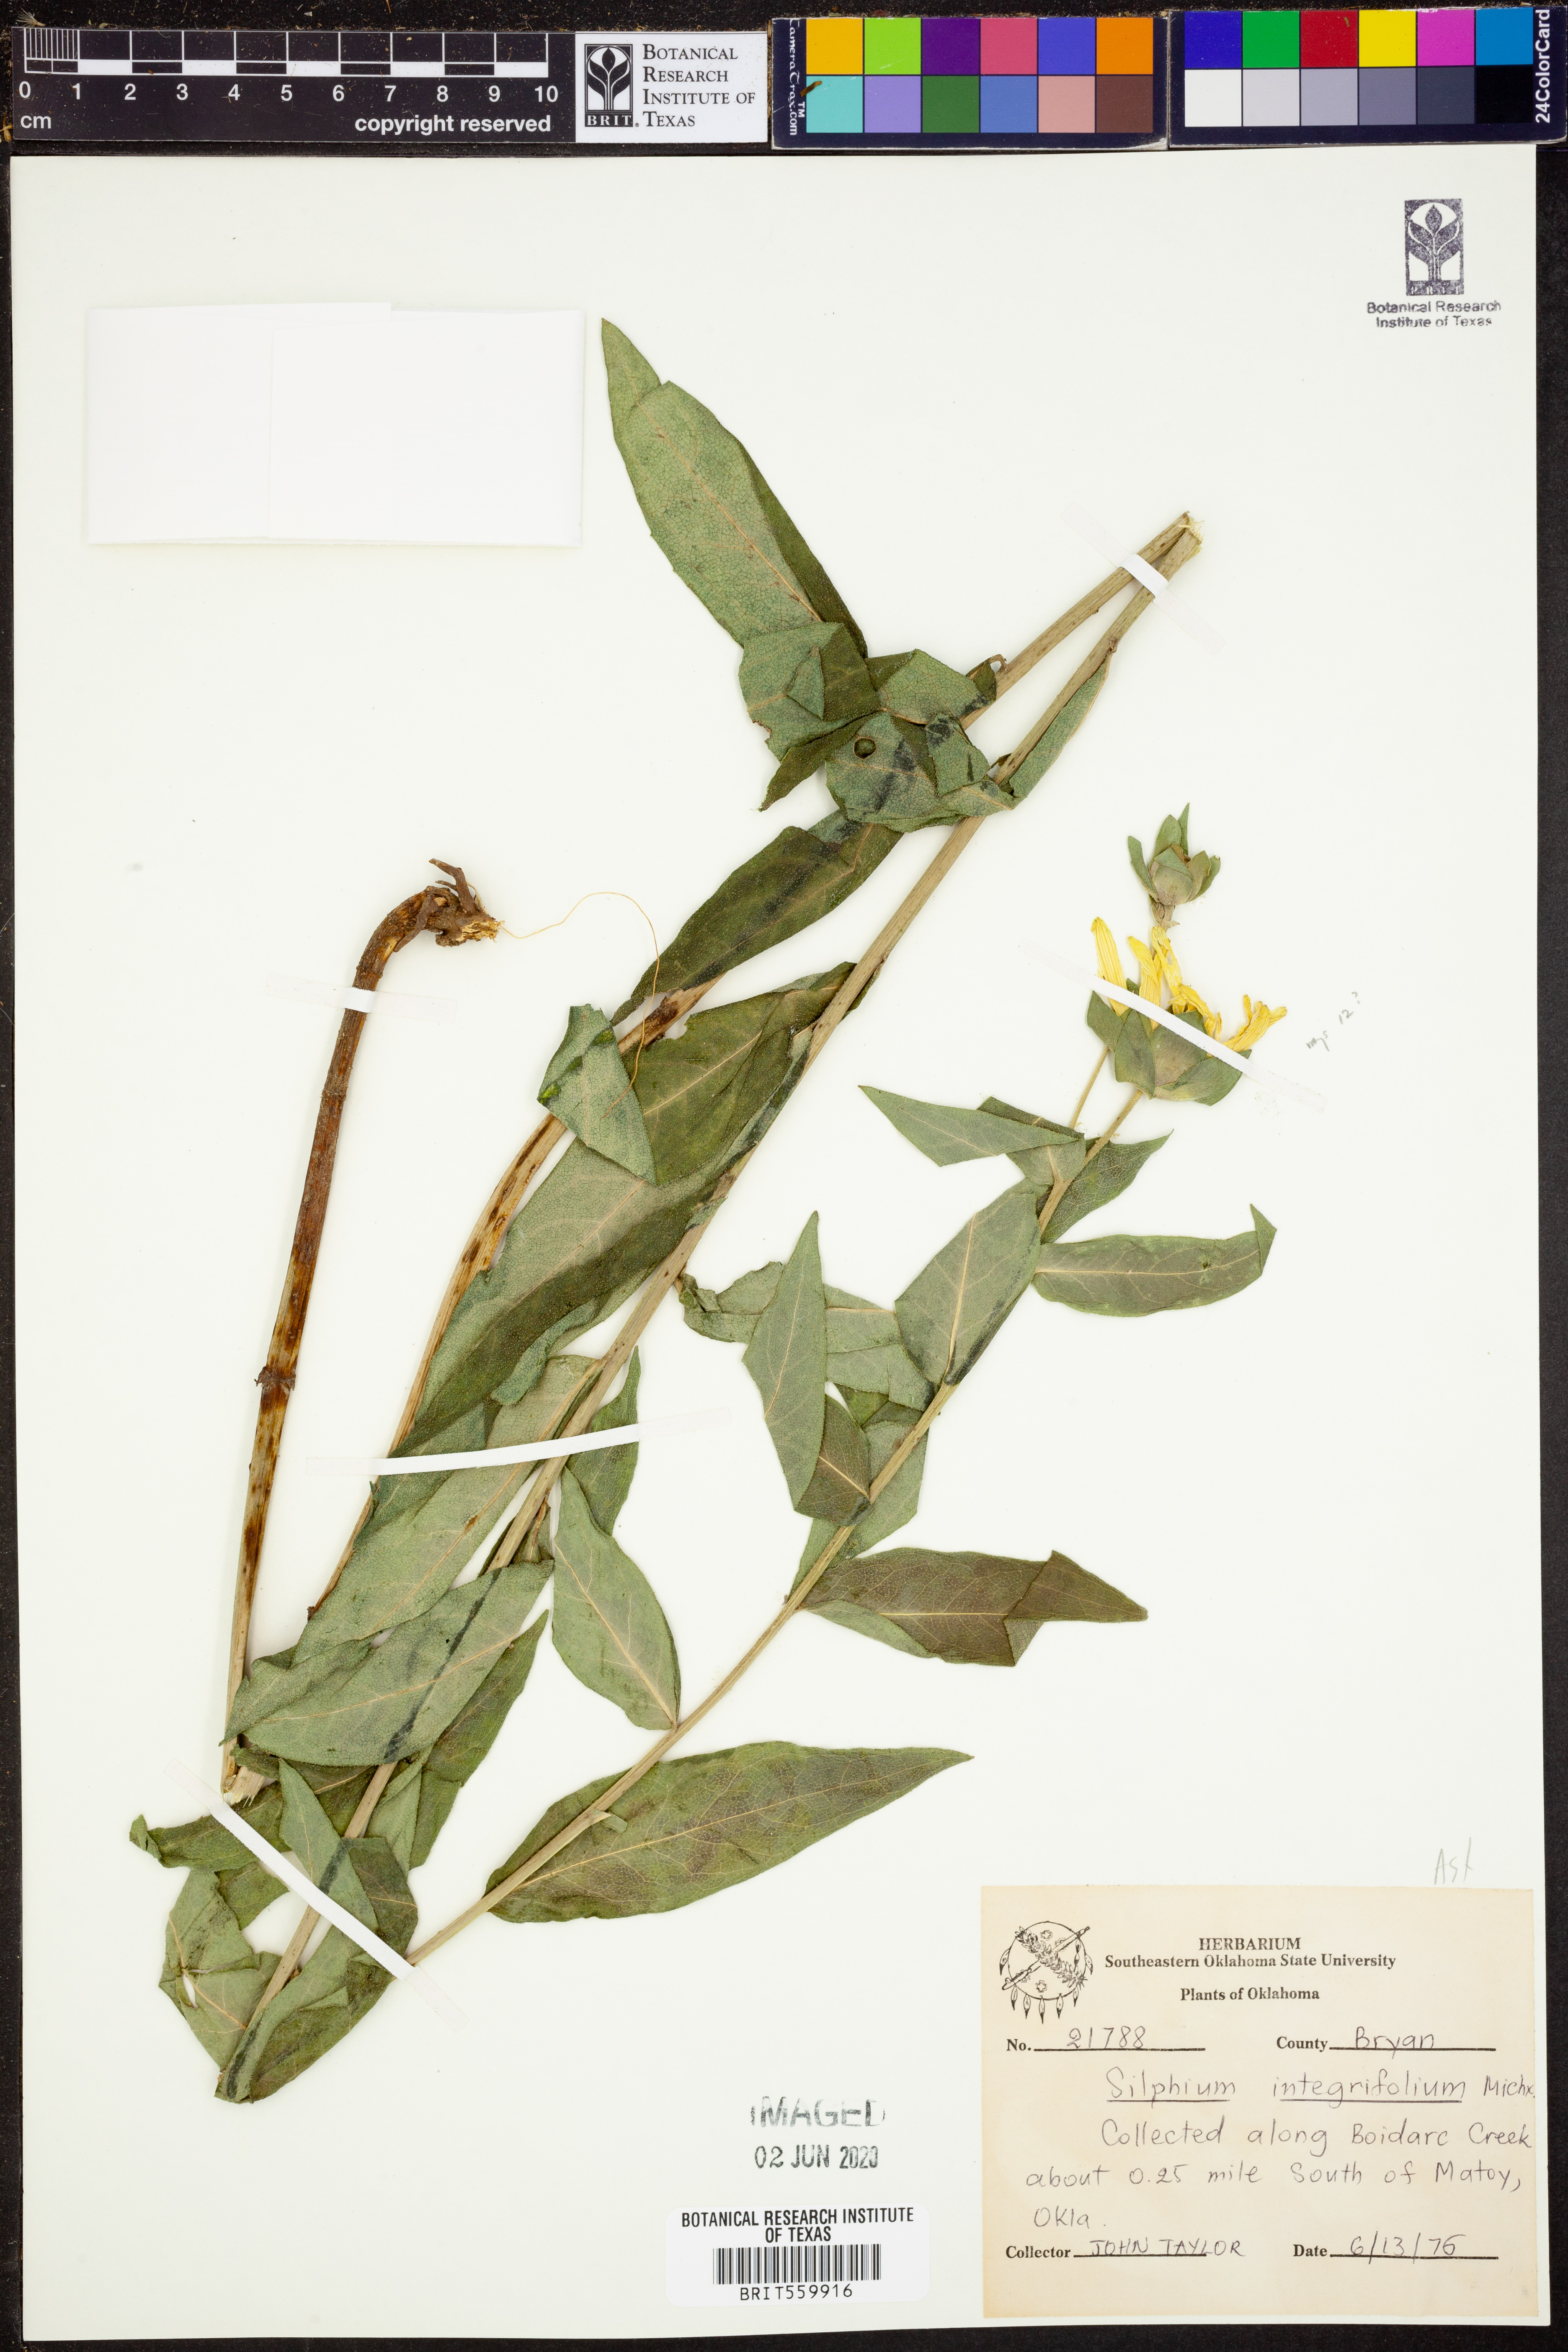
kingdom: Plantae
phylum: Tracheophyta
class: Magnoliopsida
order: Asterales
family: Asteraceae
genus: Silphium
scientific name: Silphium integrifolium
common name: Whole-leaf rosinweed
